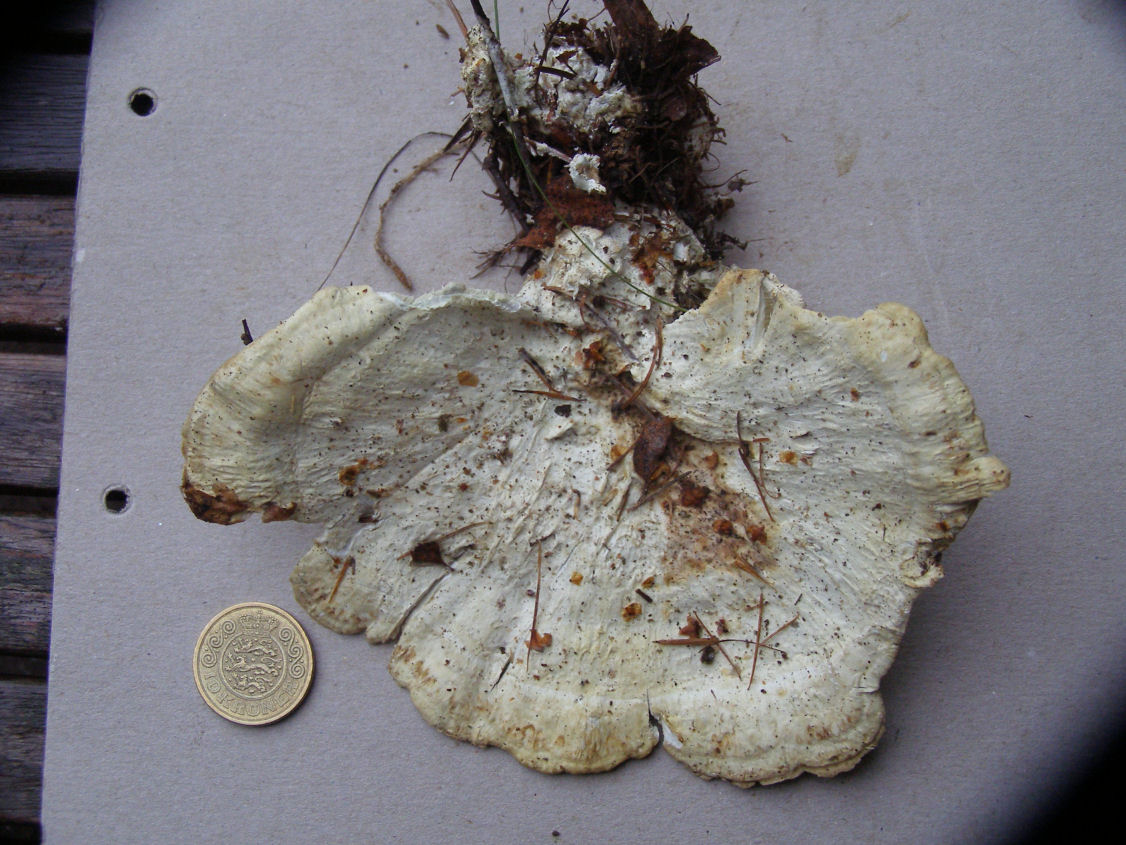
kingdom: Fungi
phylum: Basidiomycota
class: Agaricomycetes
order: Polyporales
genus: Calcipostia
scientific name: Calcipostia guttulata
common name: dråbe-kødporesvamp
